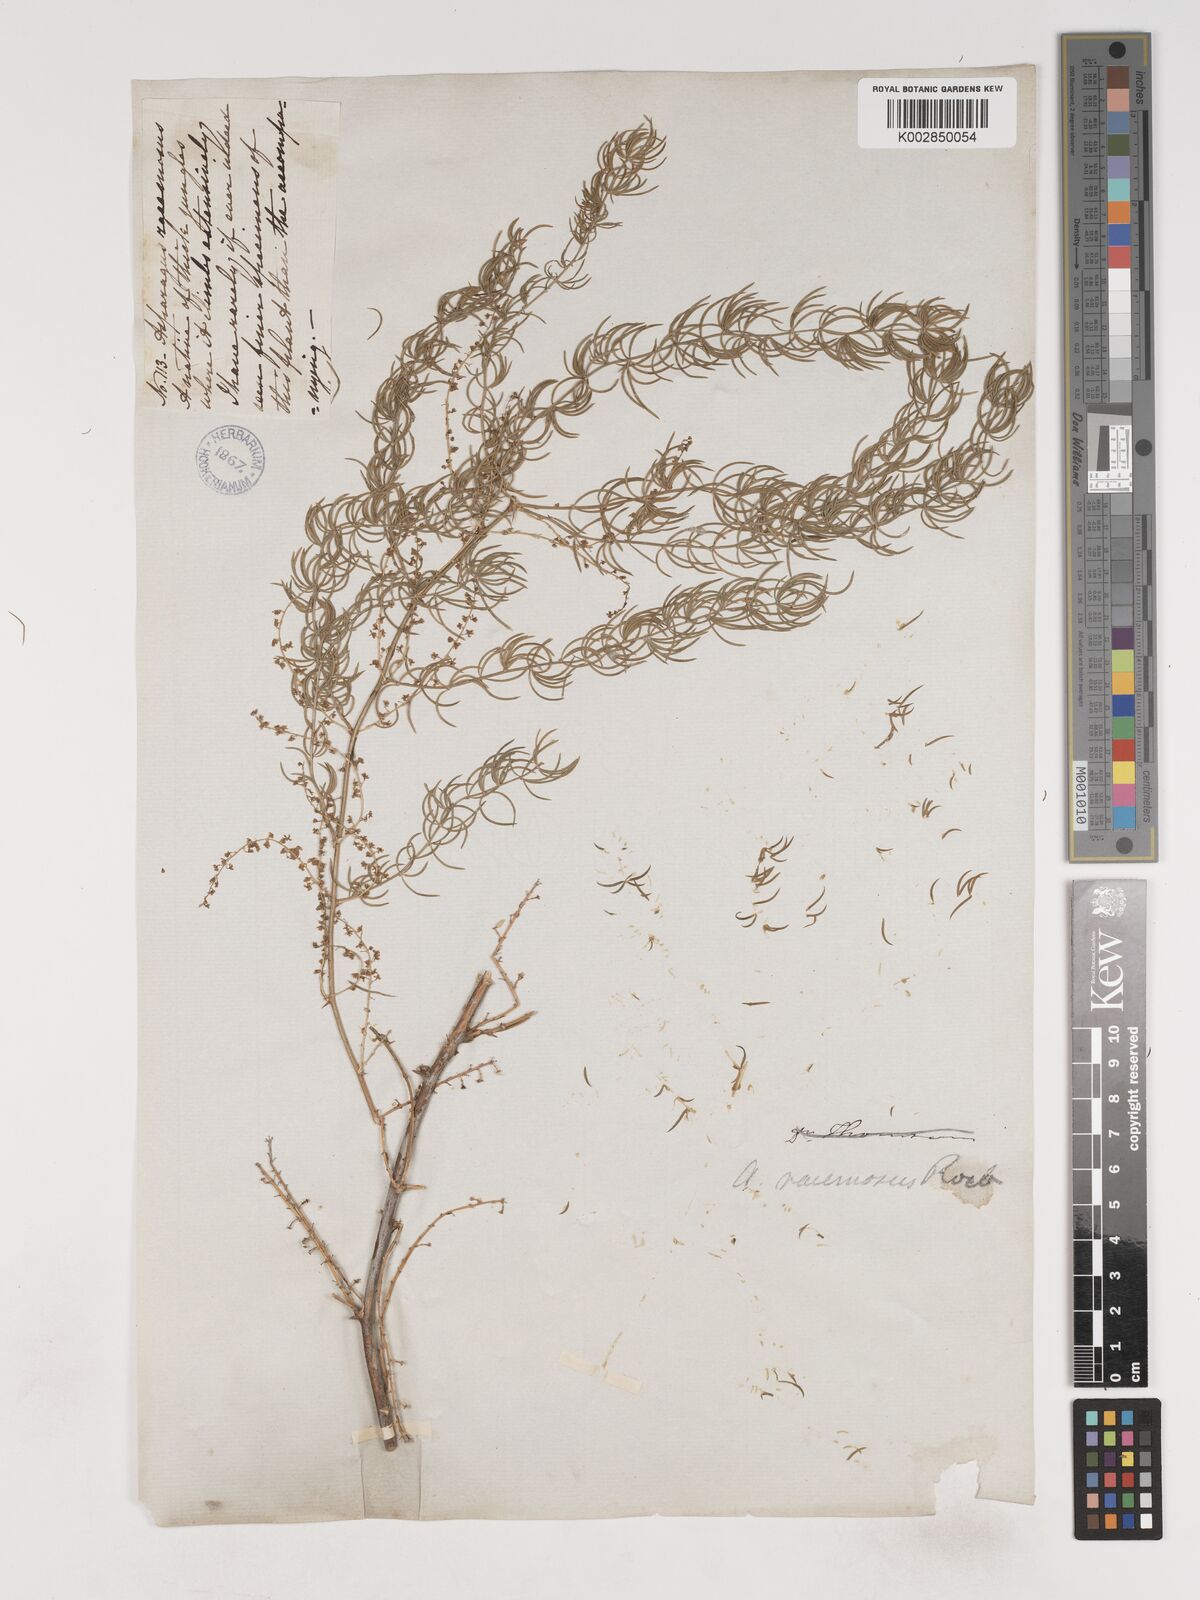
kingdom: Plantae
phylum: Tracheophyta
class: Liliopsida
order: Asparagales
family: Asparagaceae
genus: Asparagus
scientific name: Asparagus racemosus
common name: Asparagus-fern
